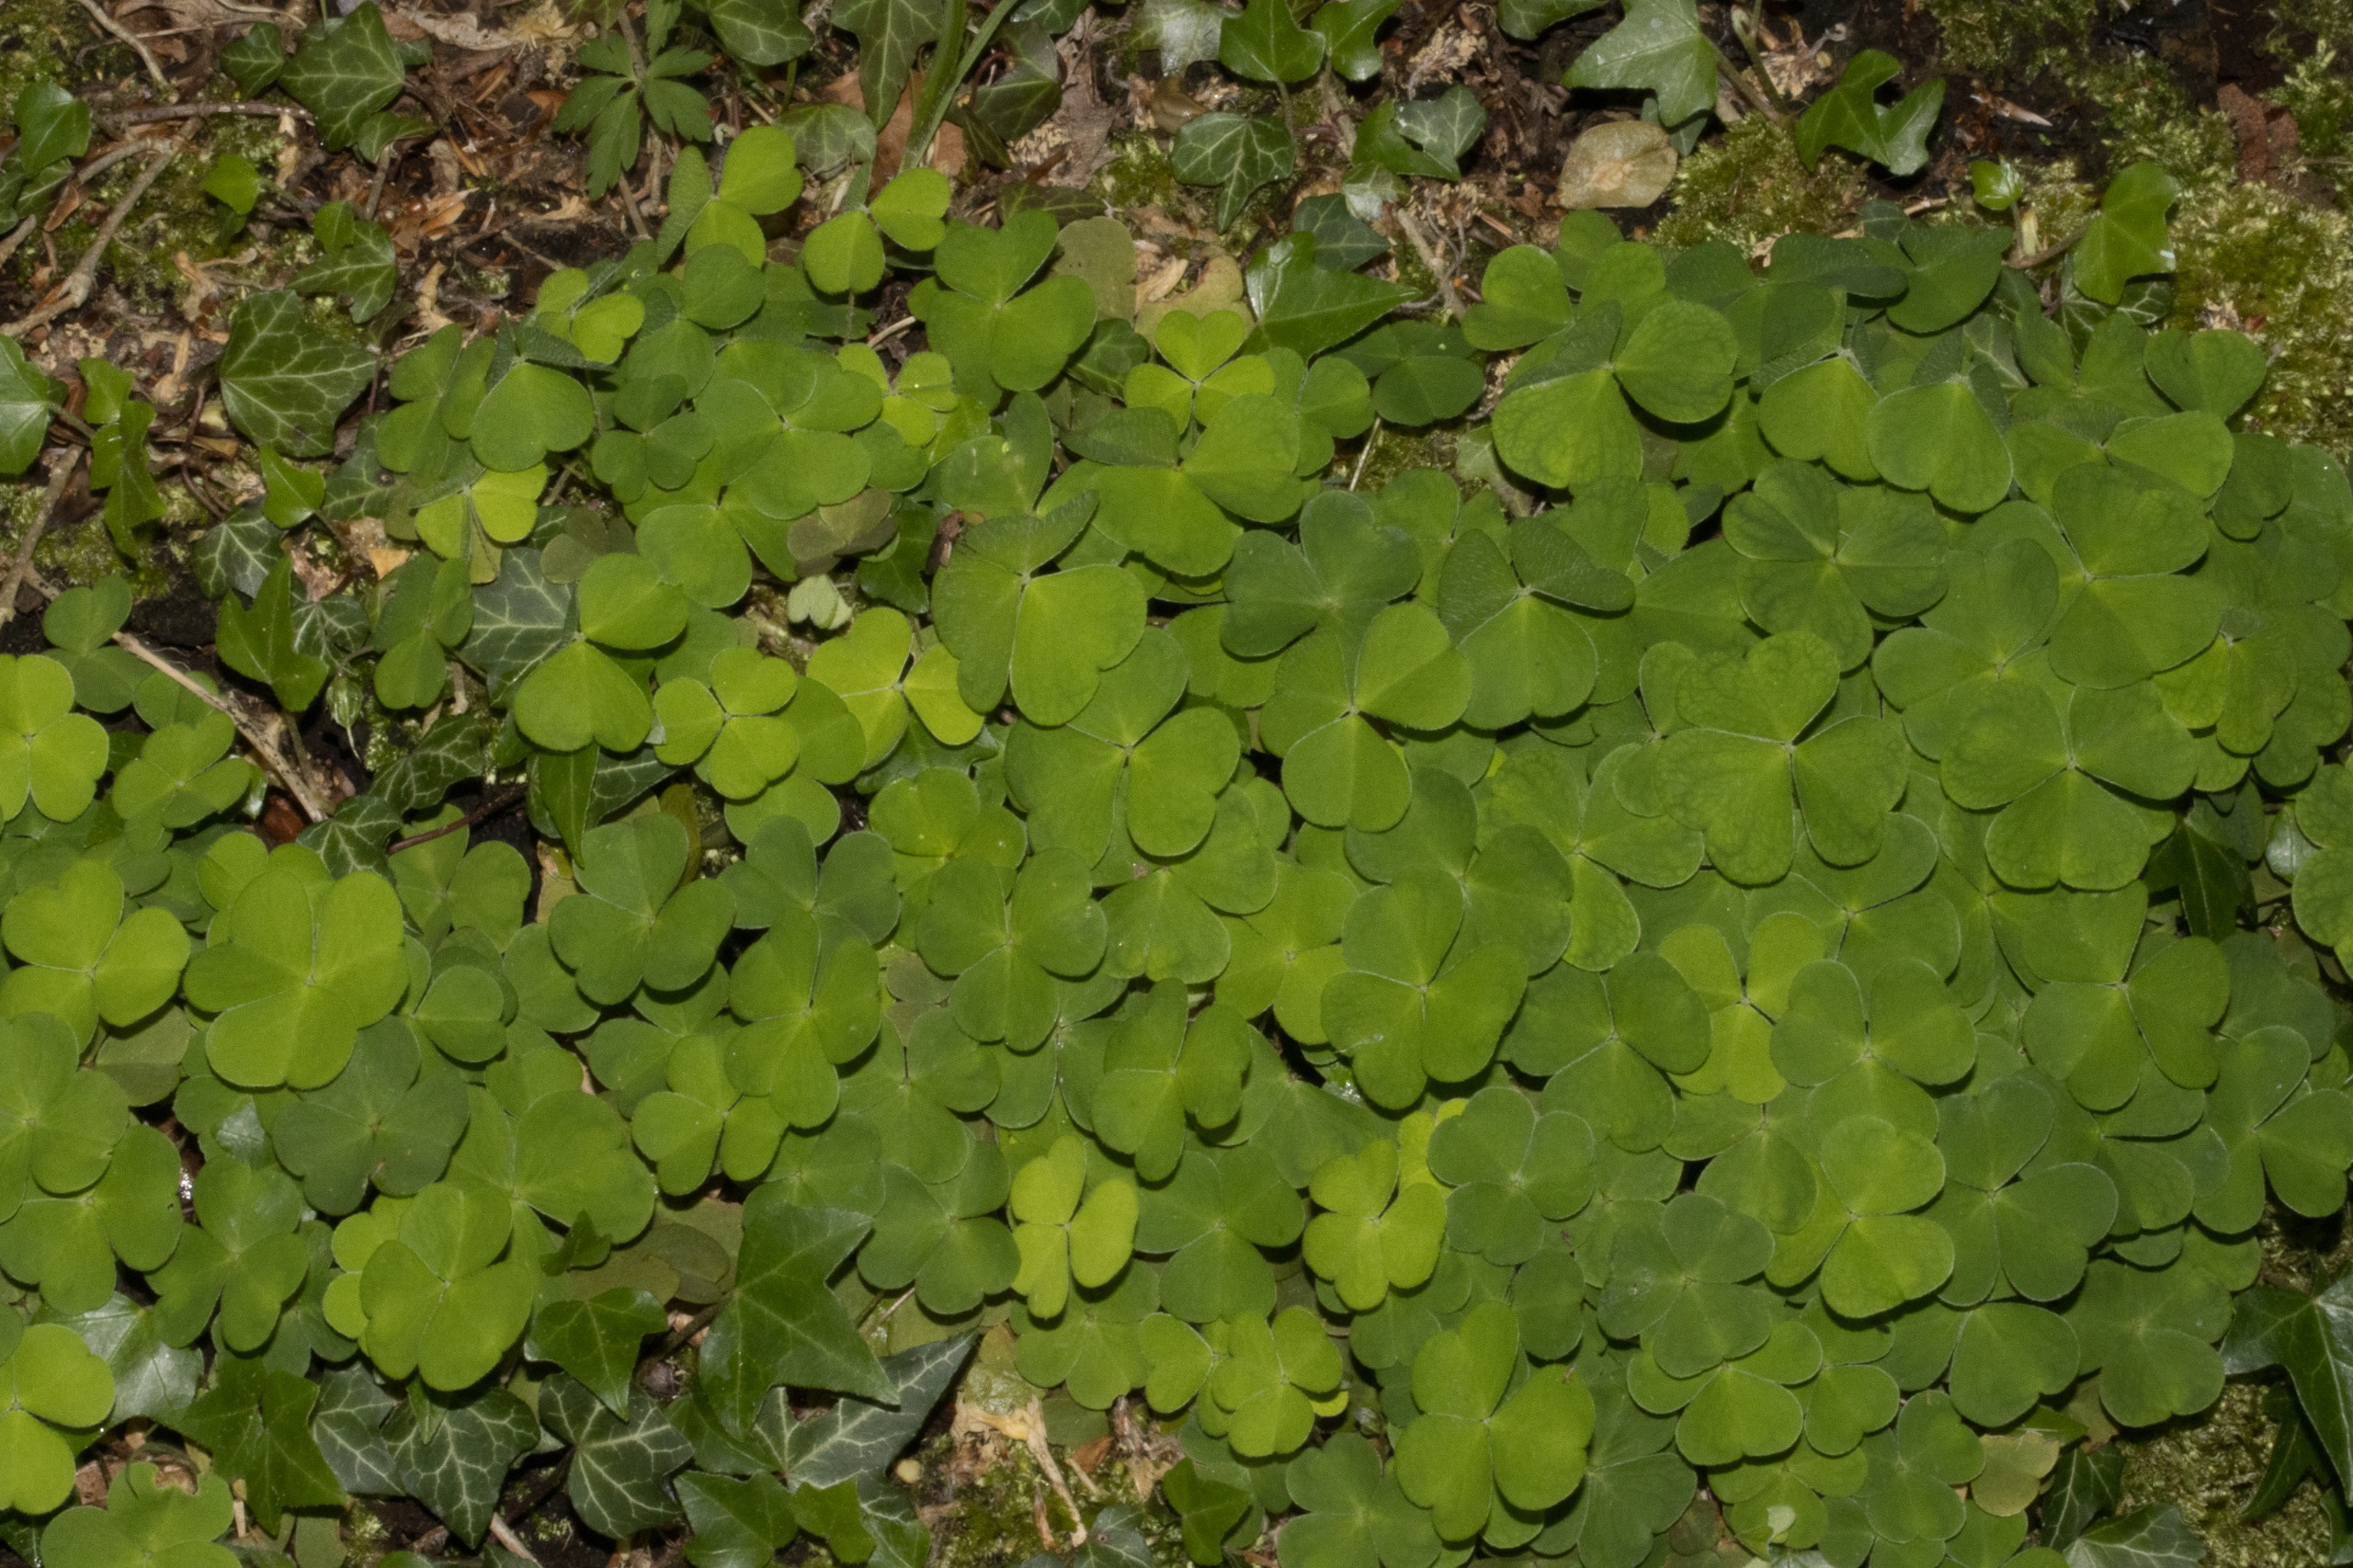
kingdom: Plantae
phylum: Tracheophyta
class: Magnoliopsida
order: Oxalidales
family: Oxalidaceae
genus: Oxalis
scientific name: Oxalis acetosella
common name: Skovsyre
